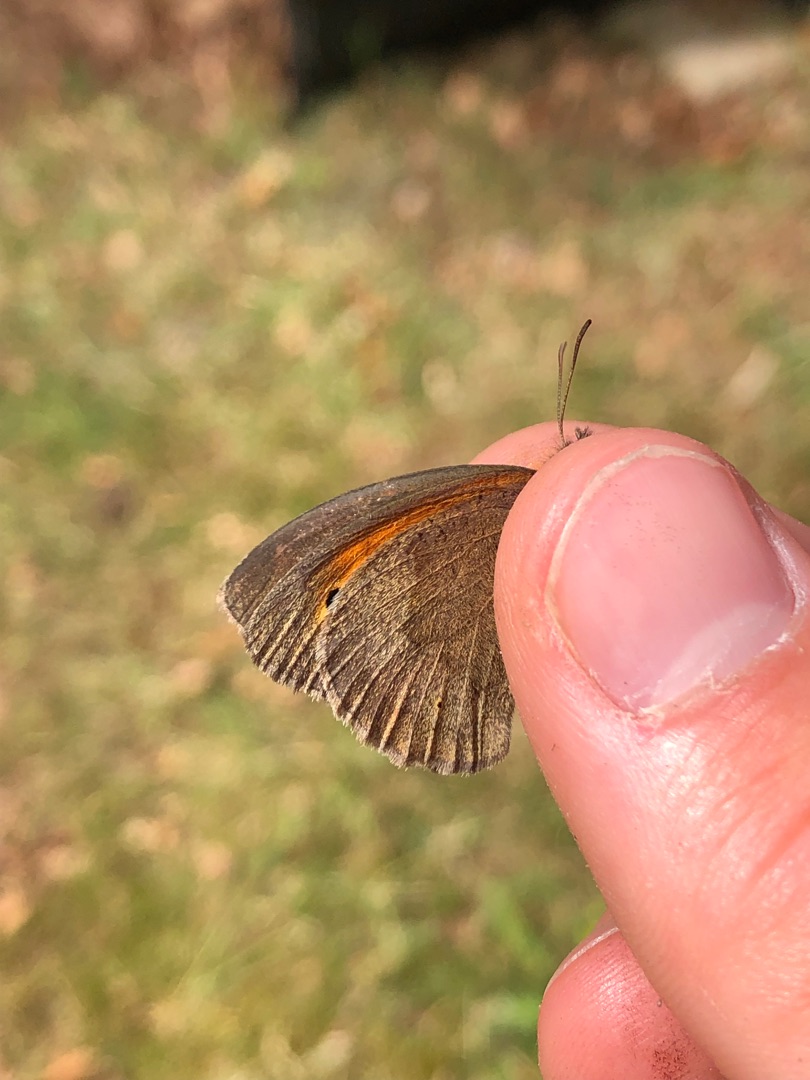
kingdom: Animalia
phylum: Arthropoda
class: Insecta
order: Lepidoptera
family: Nymphalidae
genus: Maniola
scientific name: Maniola jurtina
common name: Græsrandøje
